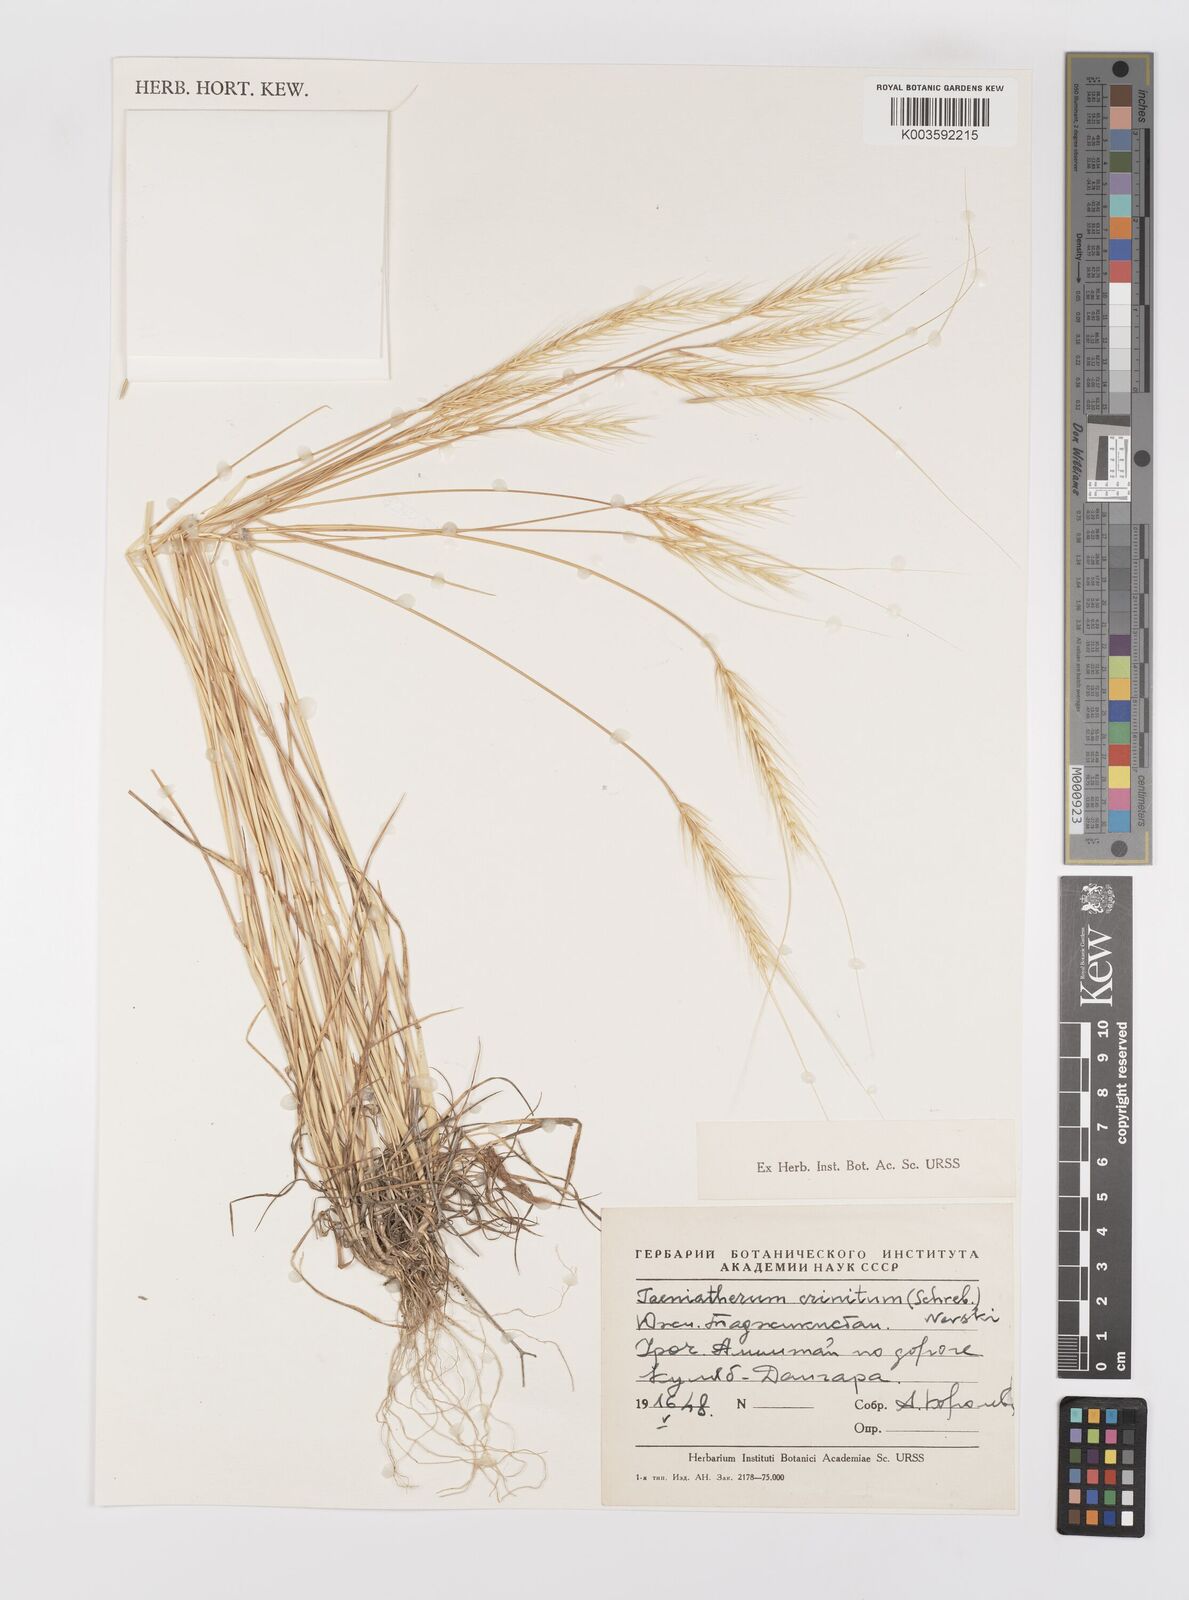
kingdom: Plantae
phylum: Tracheophyta
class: Liliopsida
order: Poales
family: Poaceae
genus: Taeniatherum
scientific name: Taeniatherum caput-medusae
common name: Medusahead
